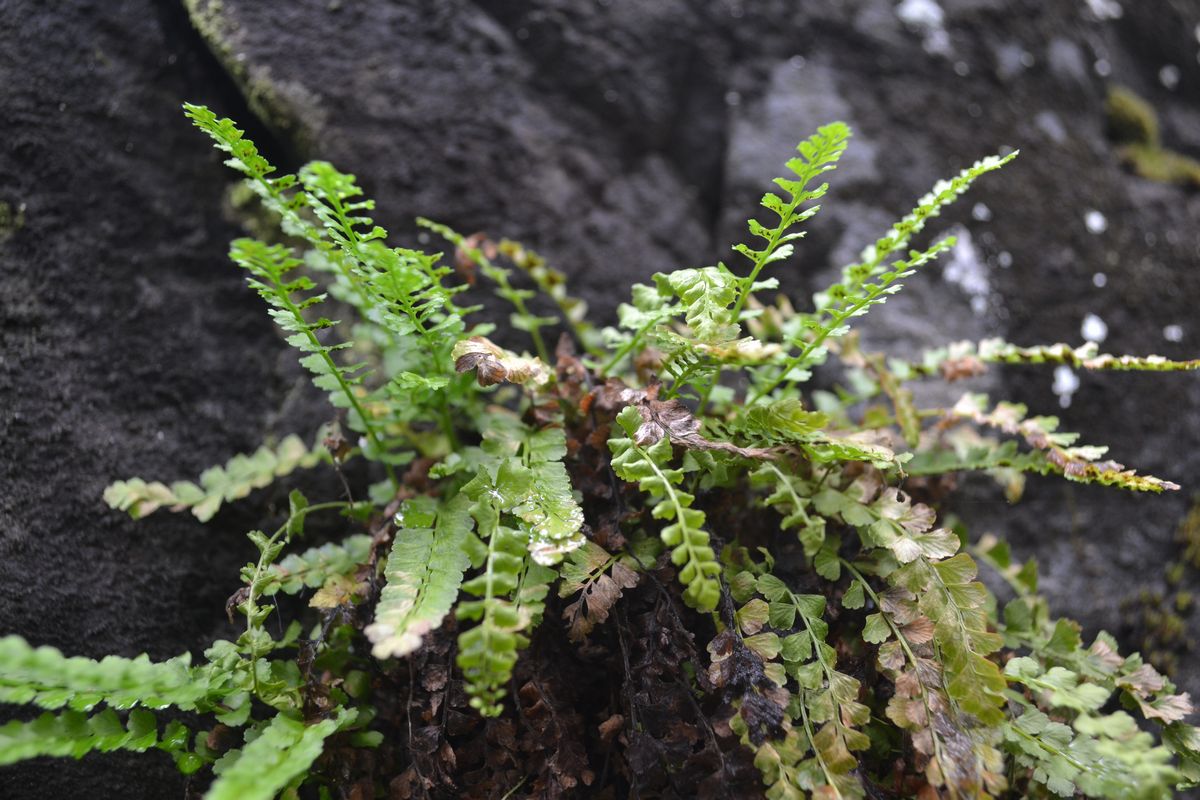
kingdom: Plantae
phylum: Tracheophyta
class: Polypodiopsida
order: Polypodiales
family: Aspleniaceae
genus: Asplenium
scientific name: Asplenium viride
